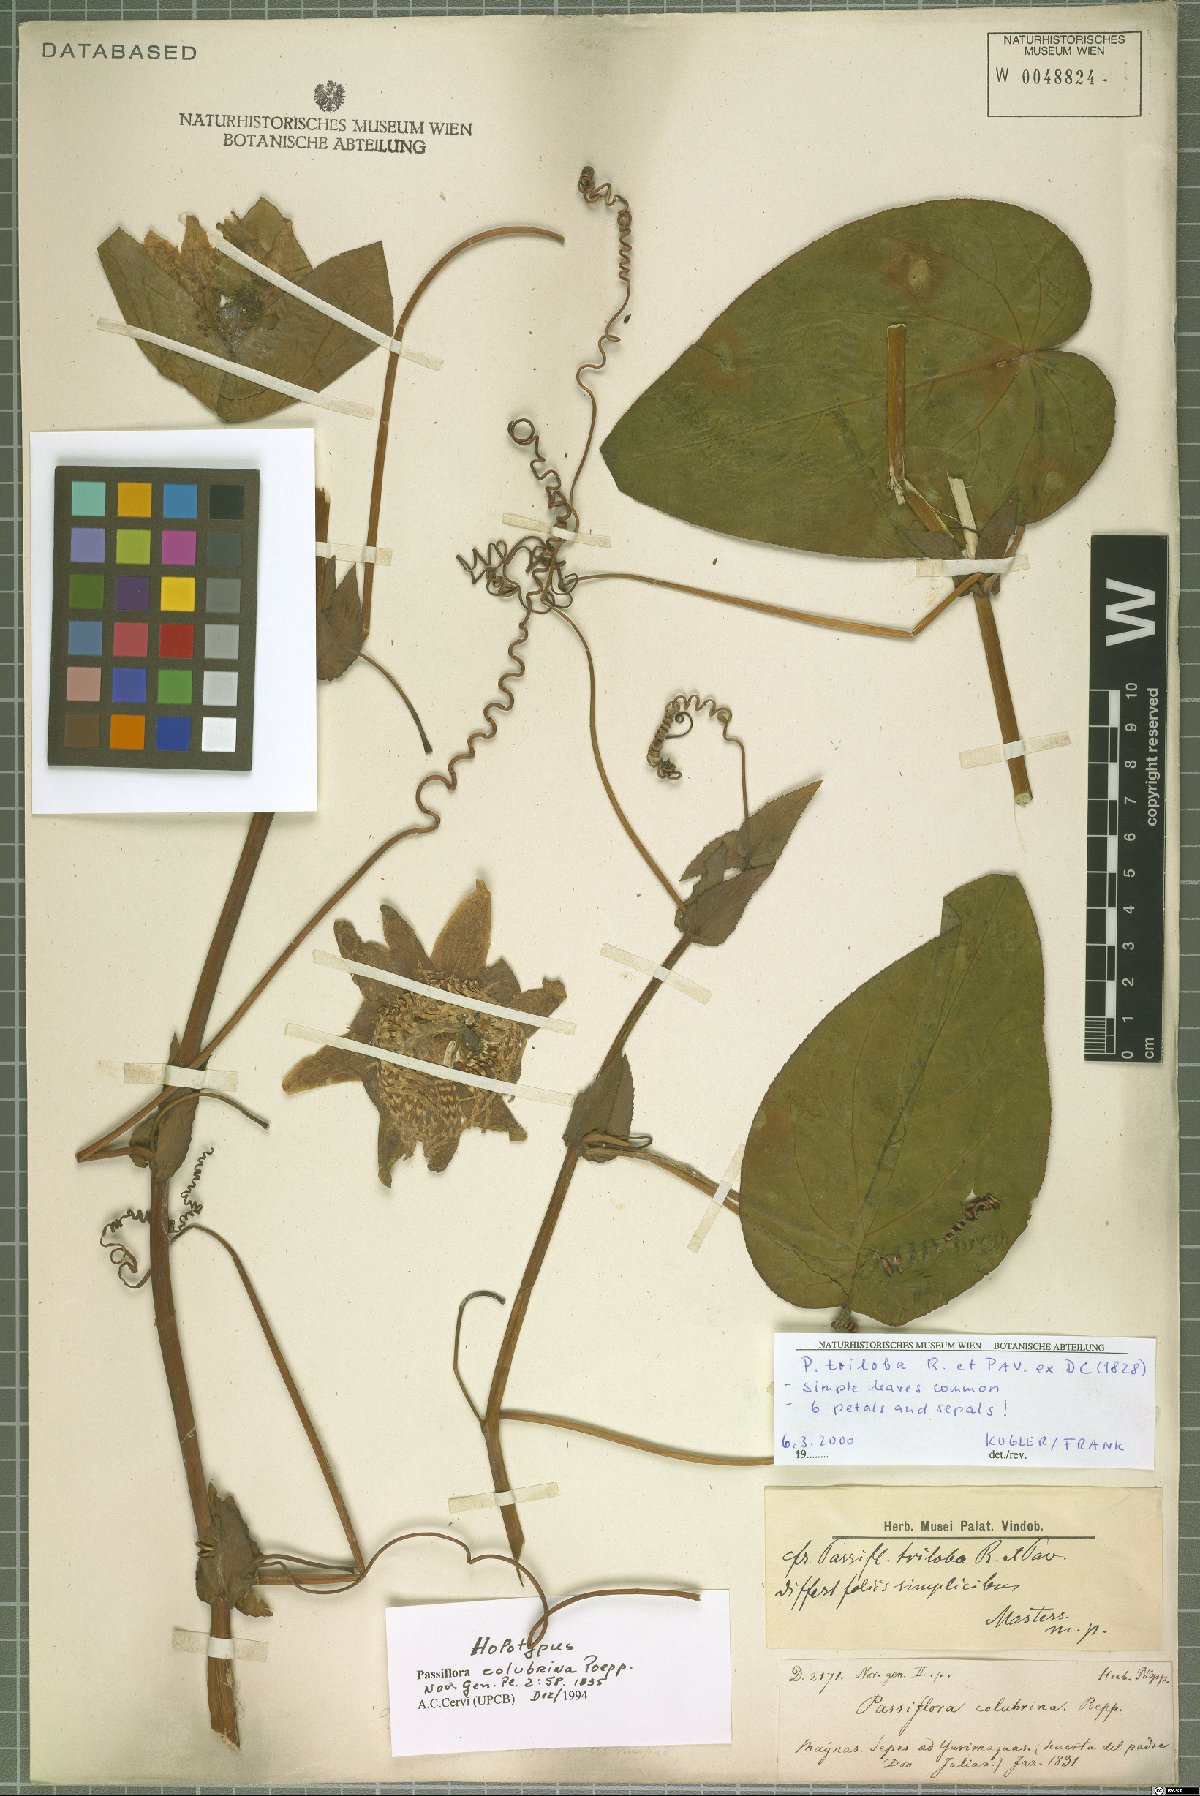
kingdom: Plantae
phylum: Tracheophyta
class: Magnoliopsida
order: Malpighiales
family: Passifloraceae
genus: Passiflora
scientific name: Passiflora triloba
